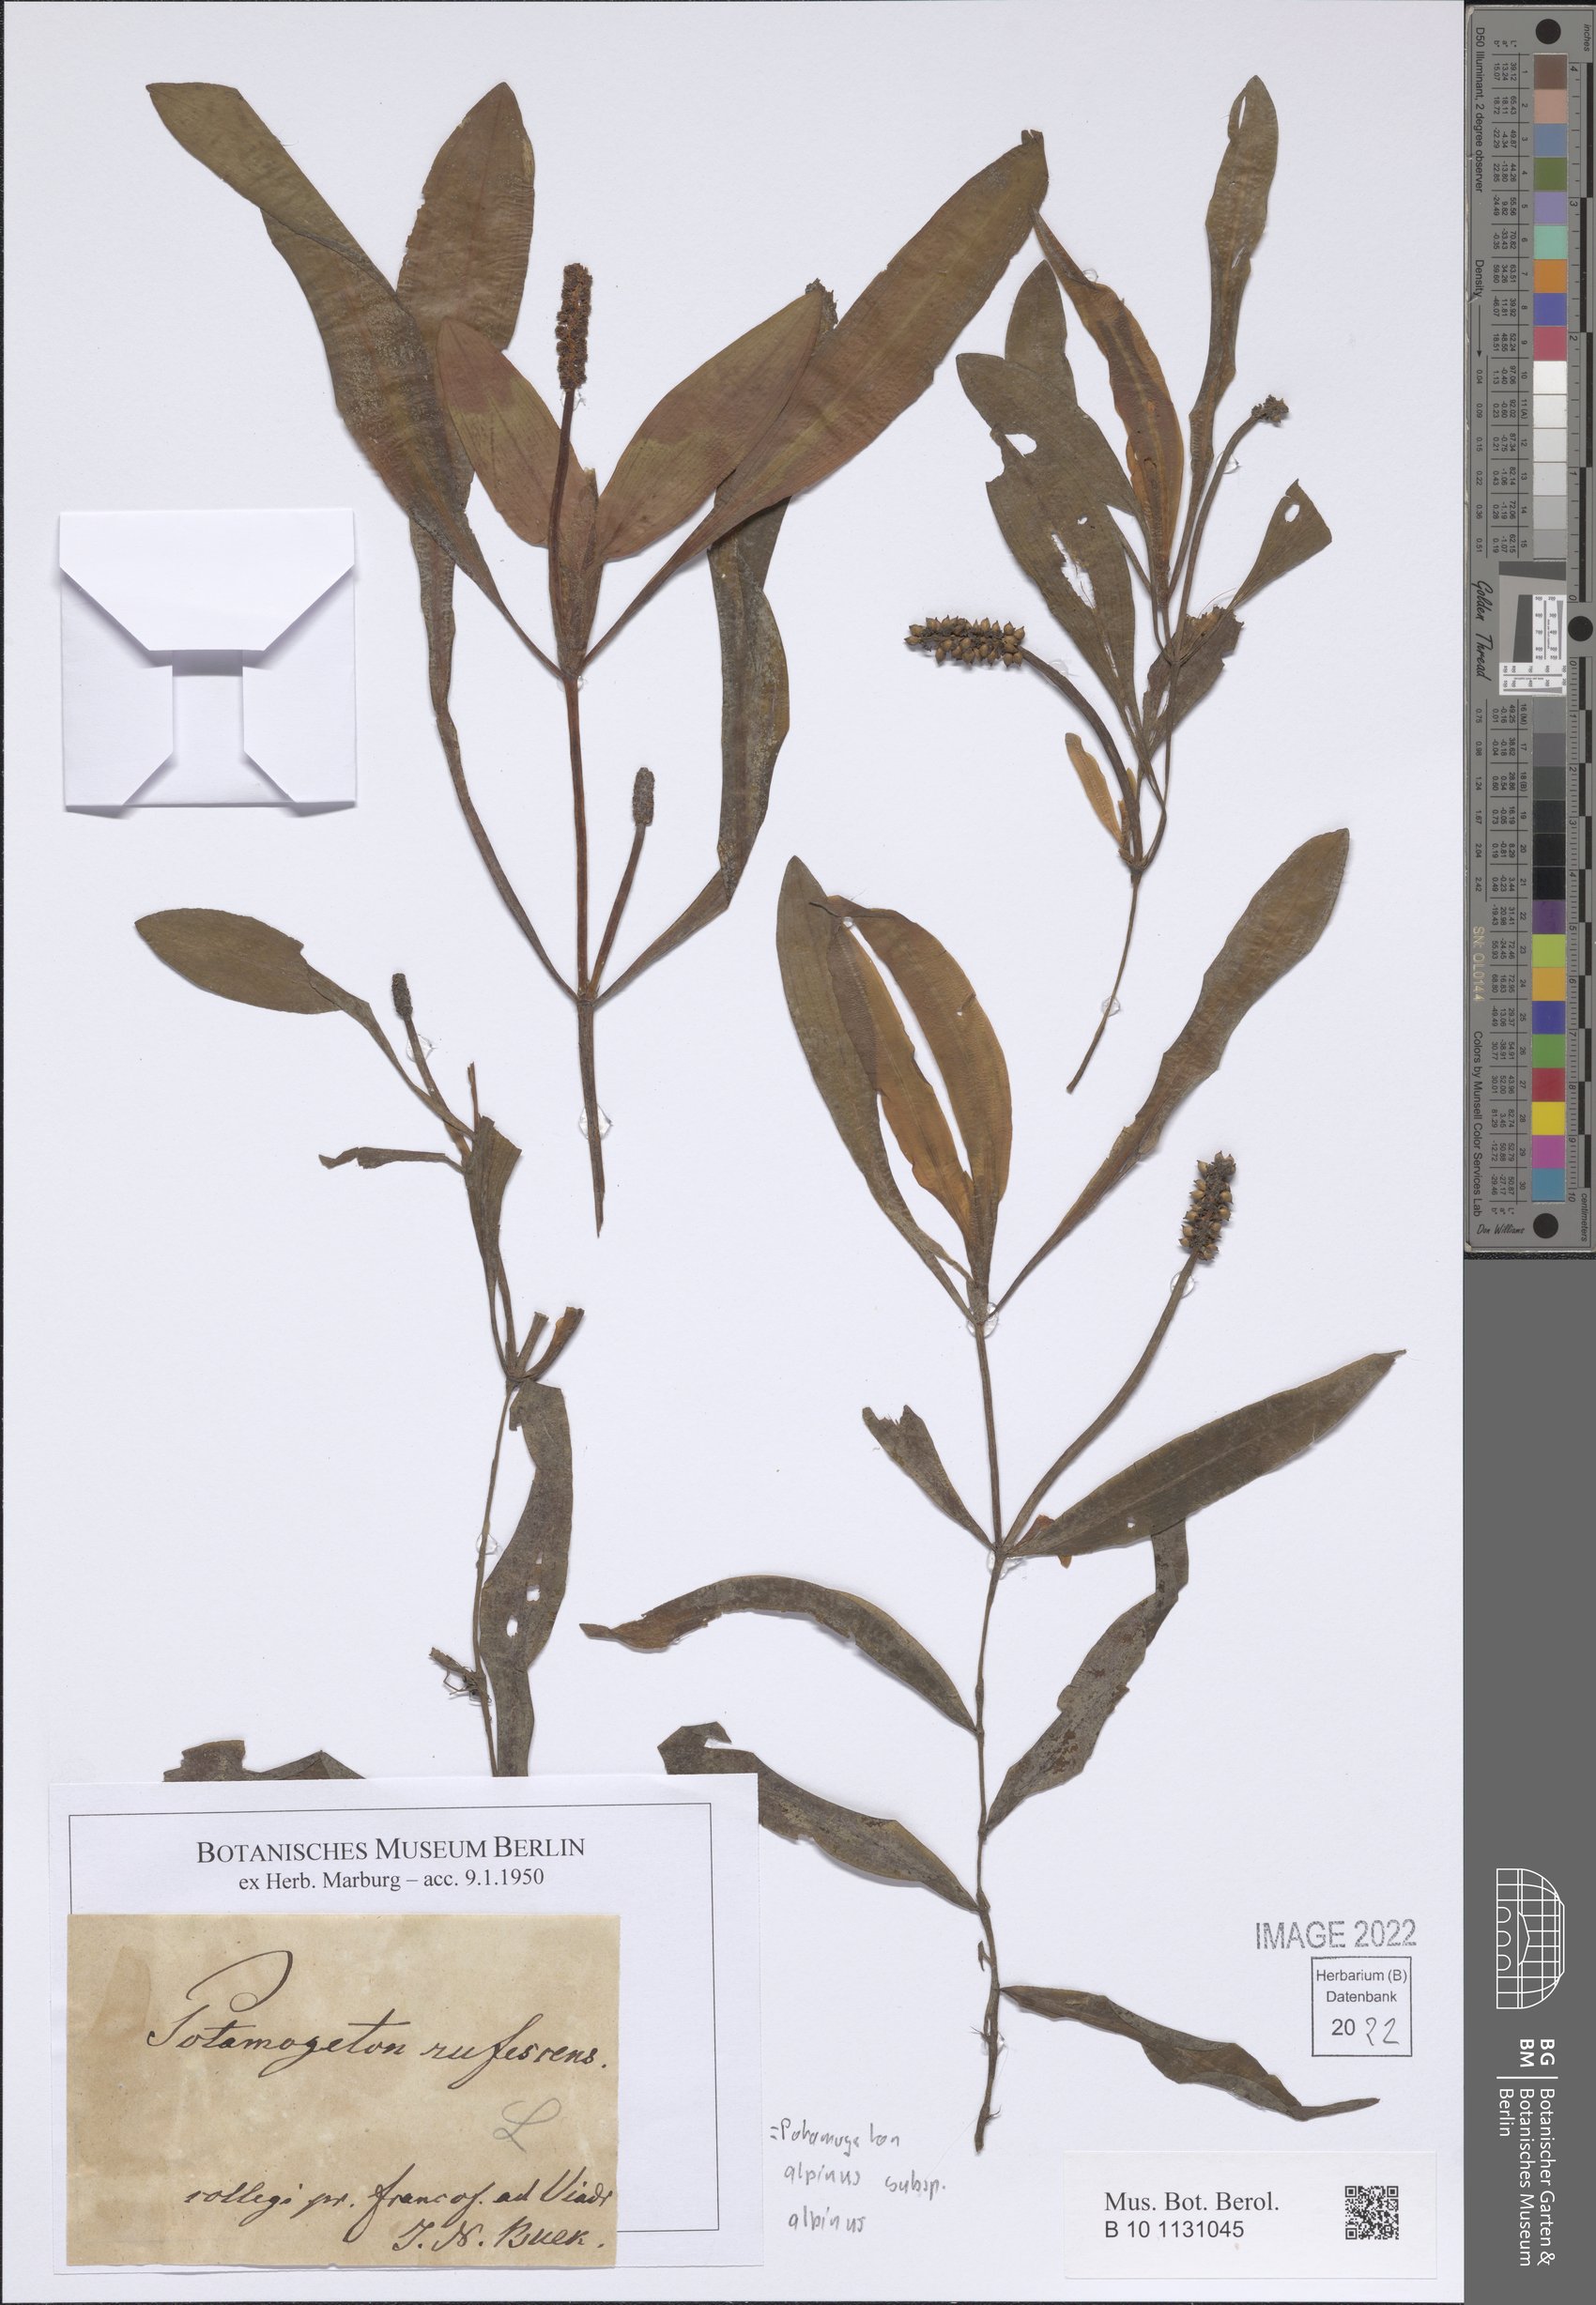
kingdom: Plantae
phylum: Tracheophyta
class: Liliopsida
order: Alismatales
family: Potamogetonaceae
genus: Potamogeton
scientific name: Potamogeton alpinus
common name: Red pondweed
